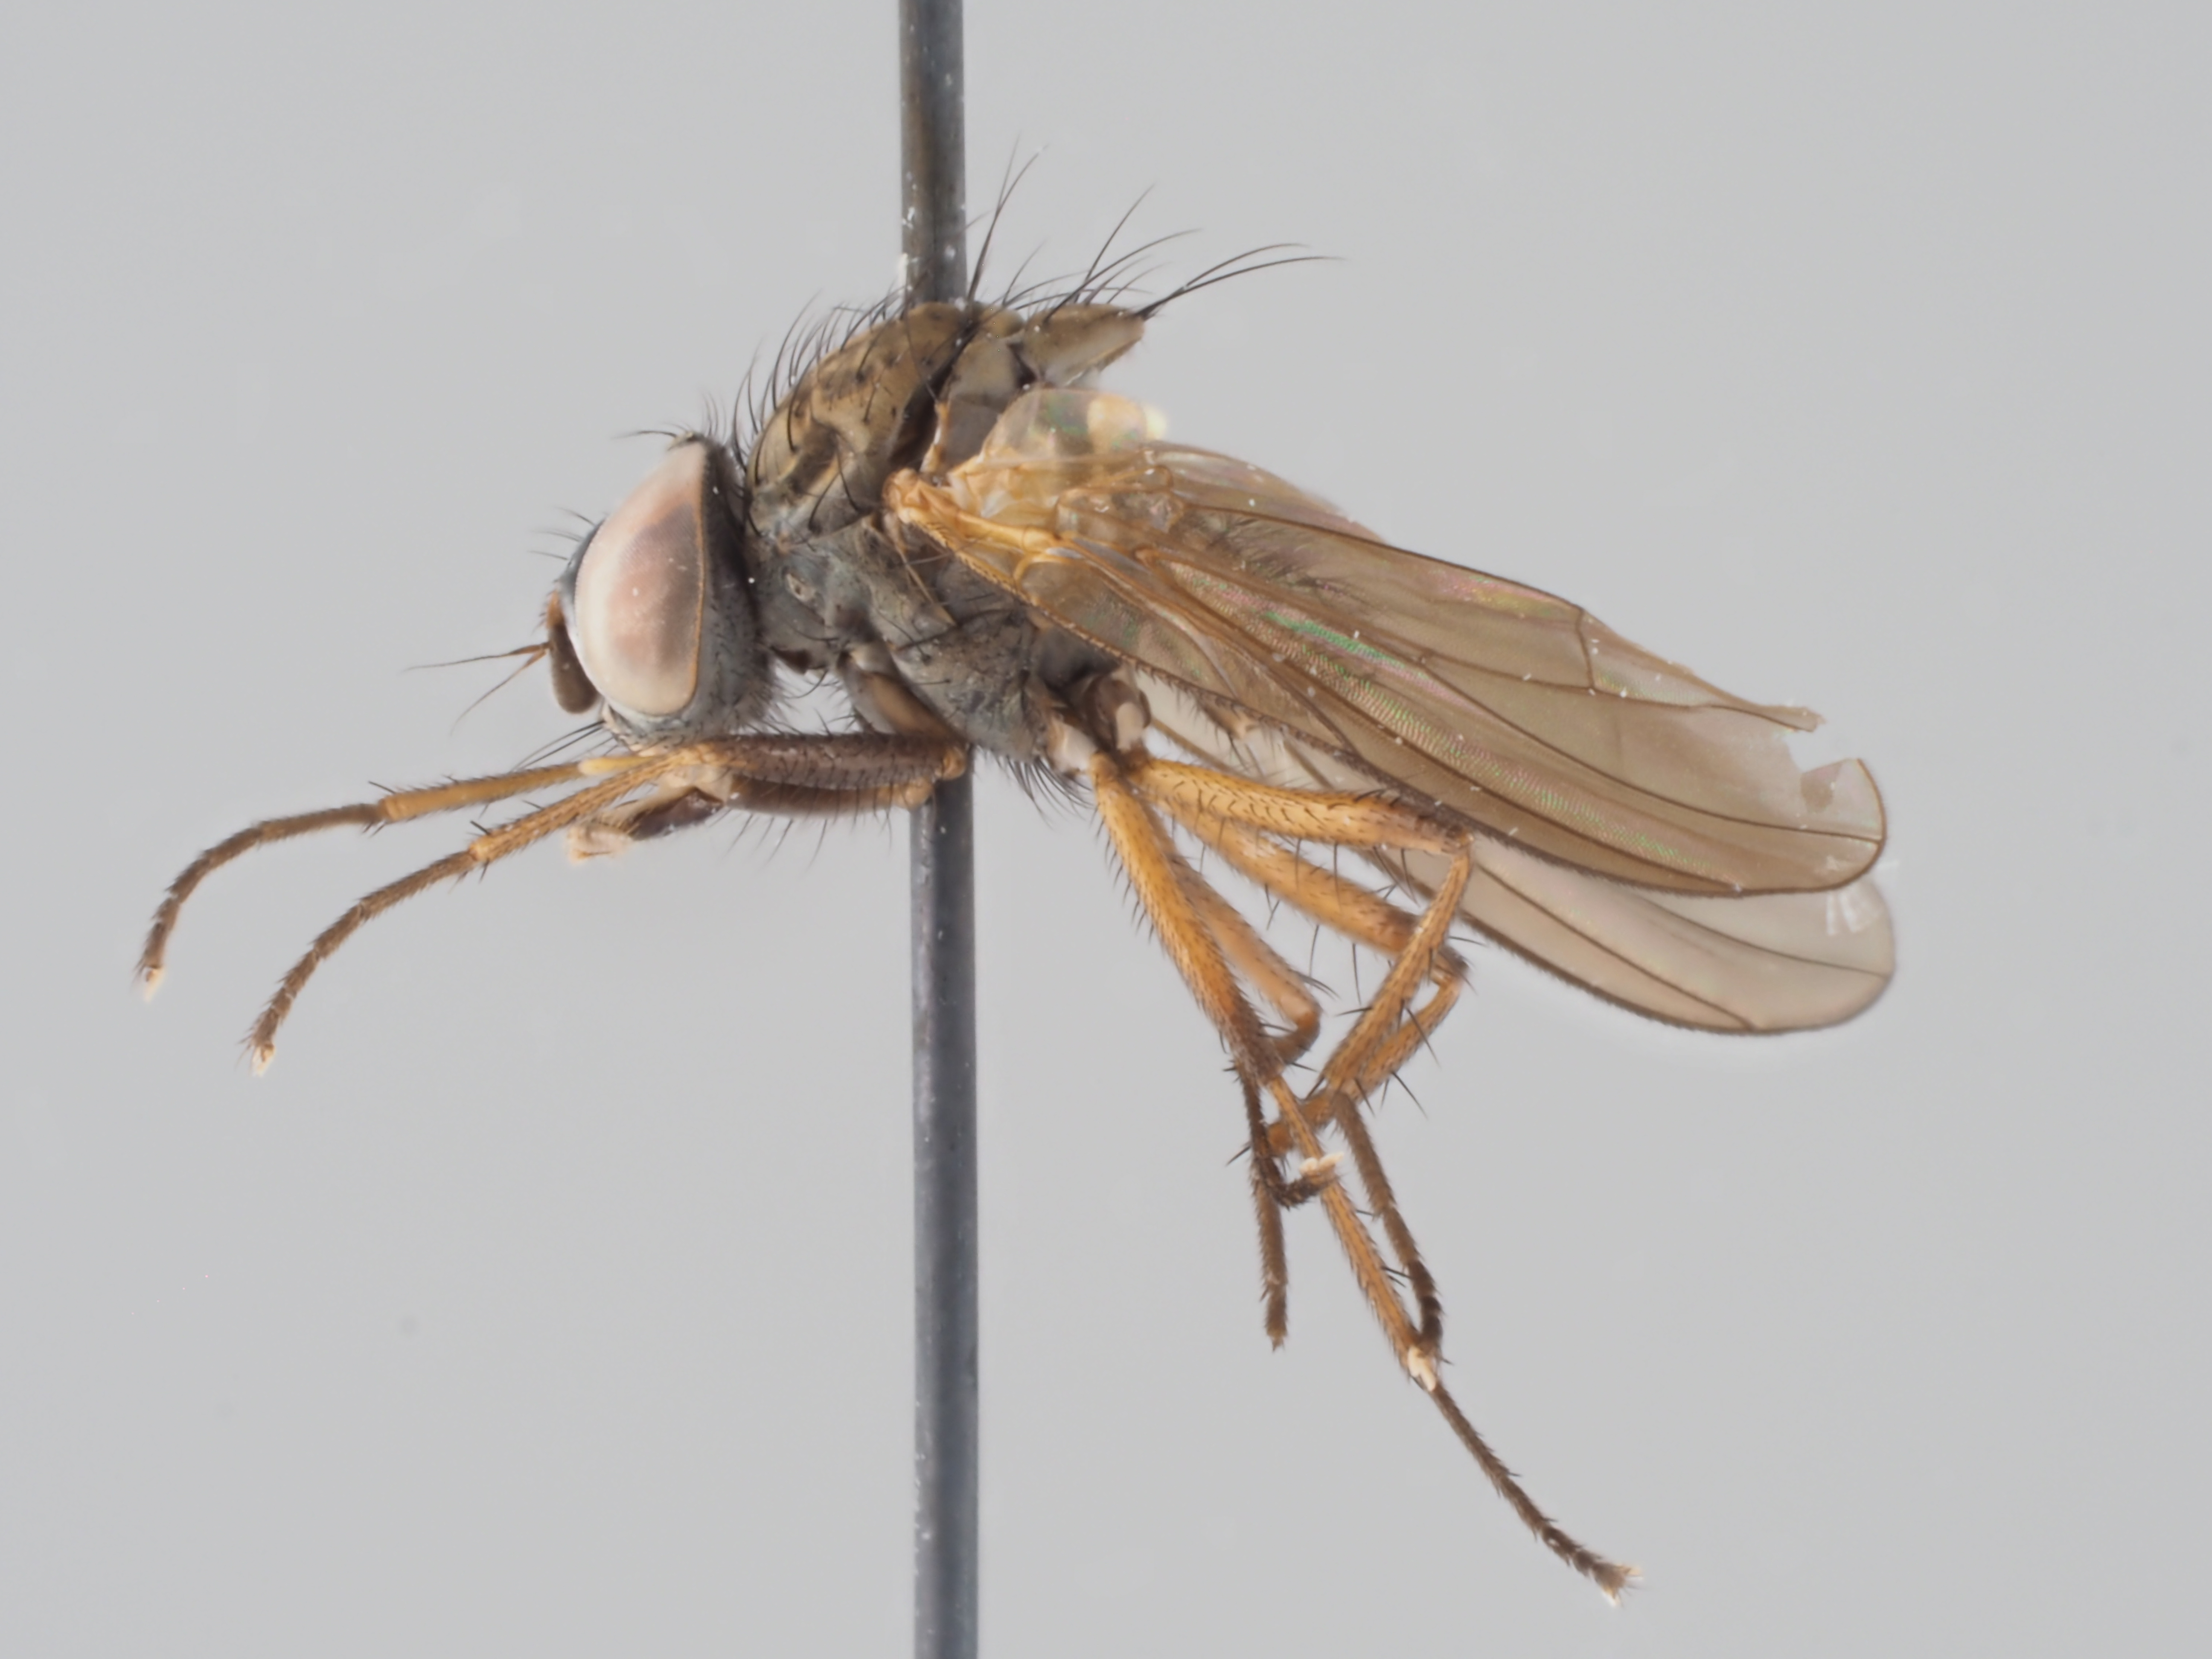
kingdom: Animalia
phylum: Arthropoda
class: Insecta
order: Diptera
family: Anthomyiidae
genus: Pegomya
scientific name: Pegomya flavoscutellata
